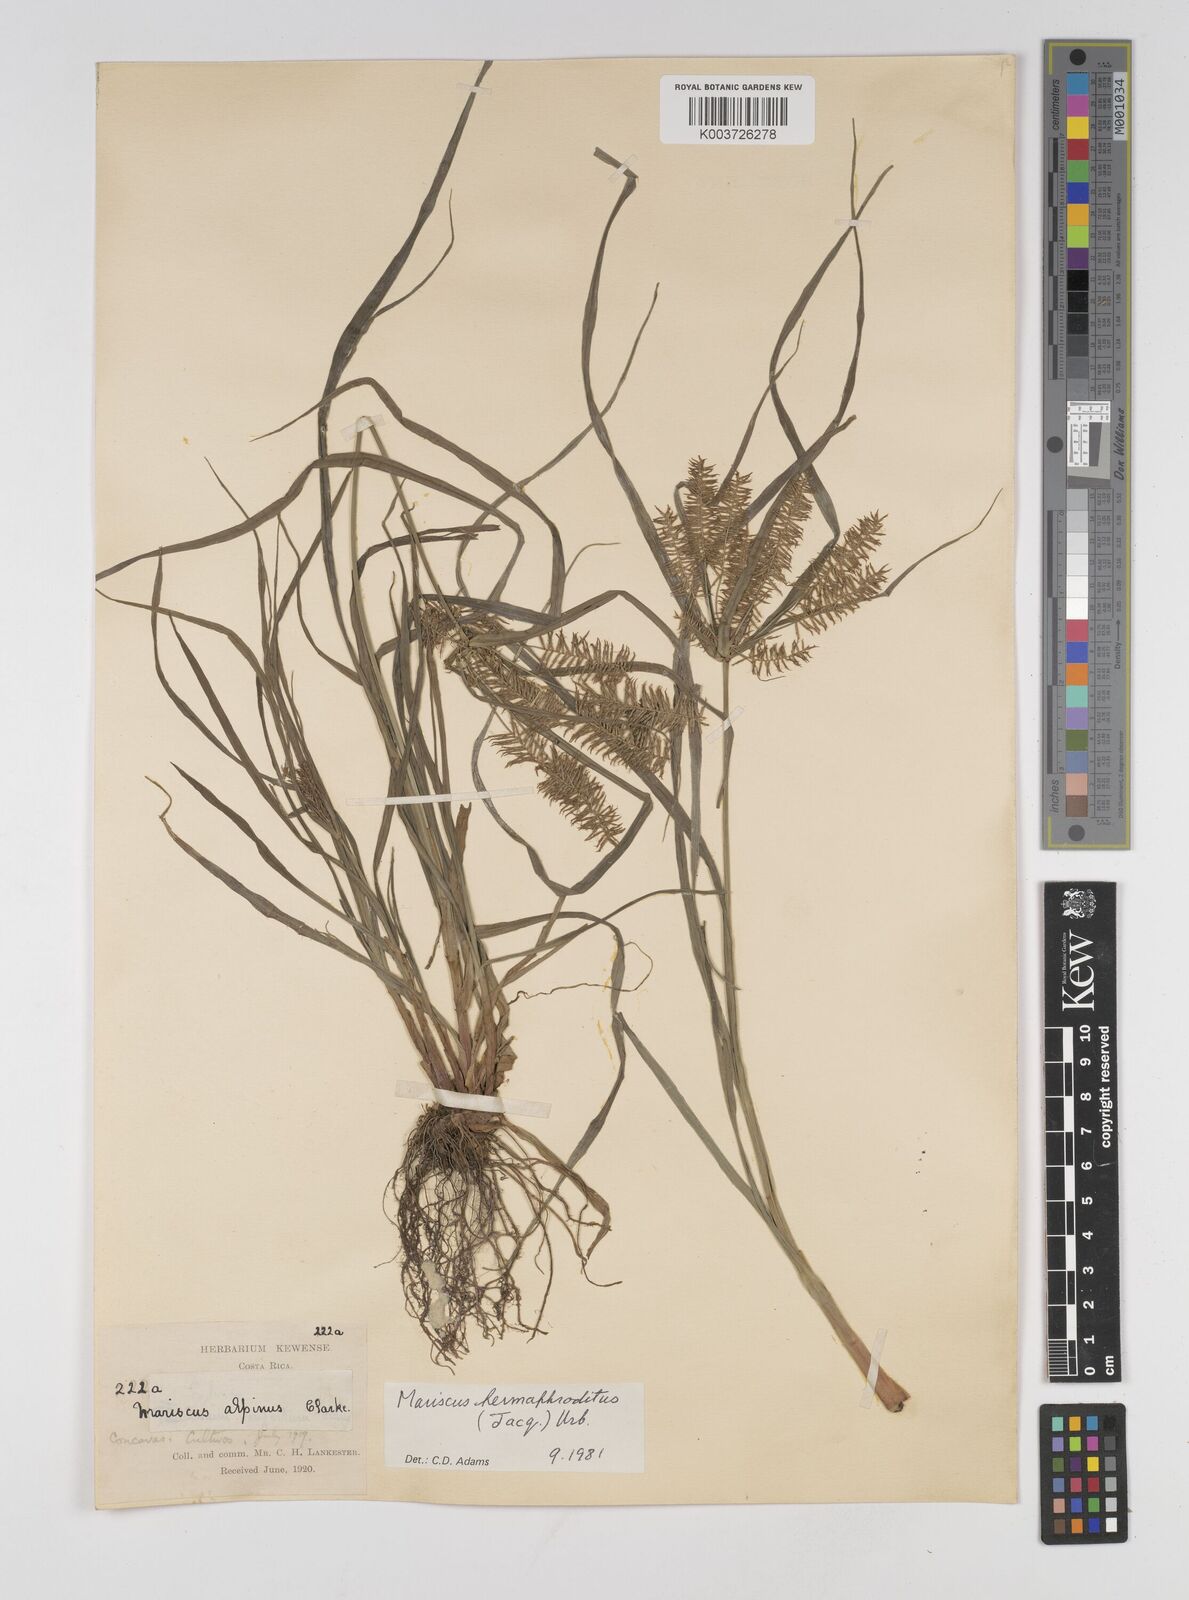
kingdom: Plantae
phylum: Tracheophyta
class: Liliopsida
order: Poales
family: Cyperaceae
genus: Cyperus
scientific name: Cyperus hermaphroditus
